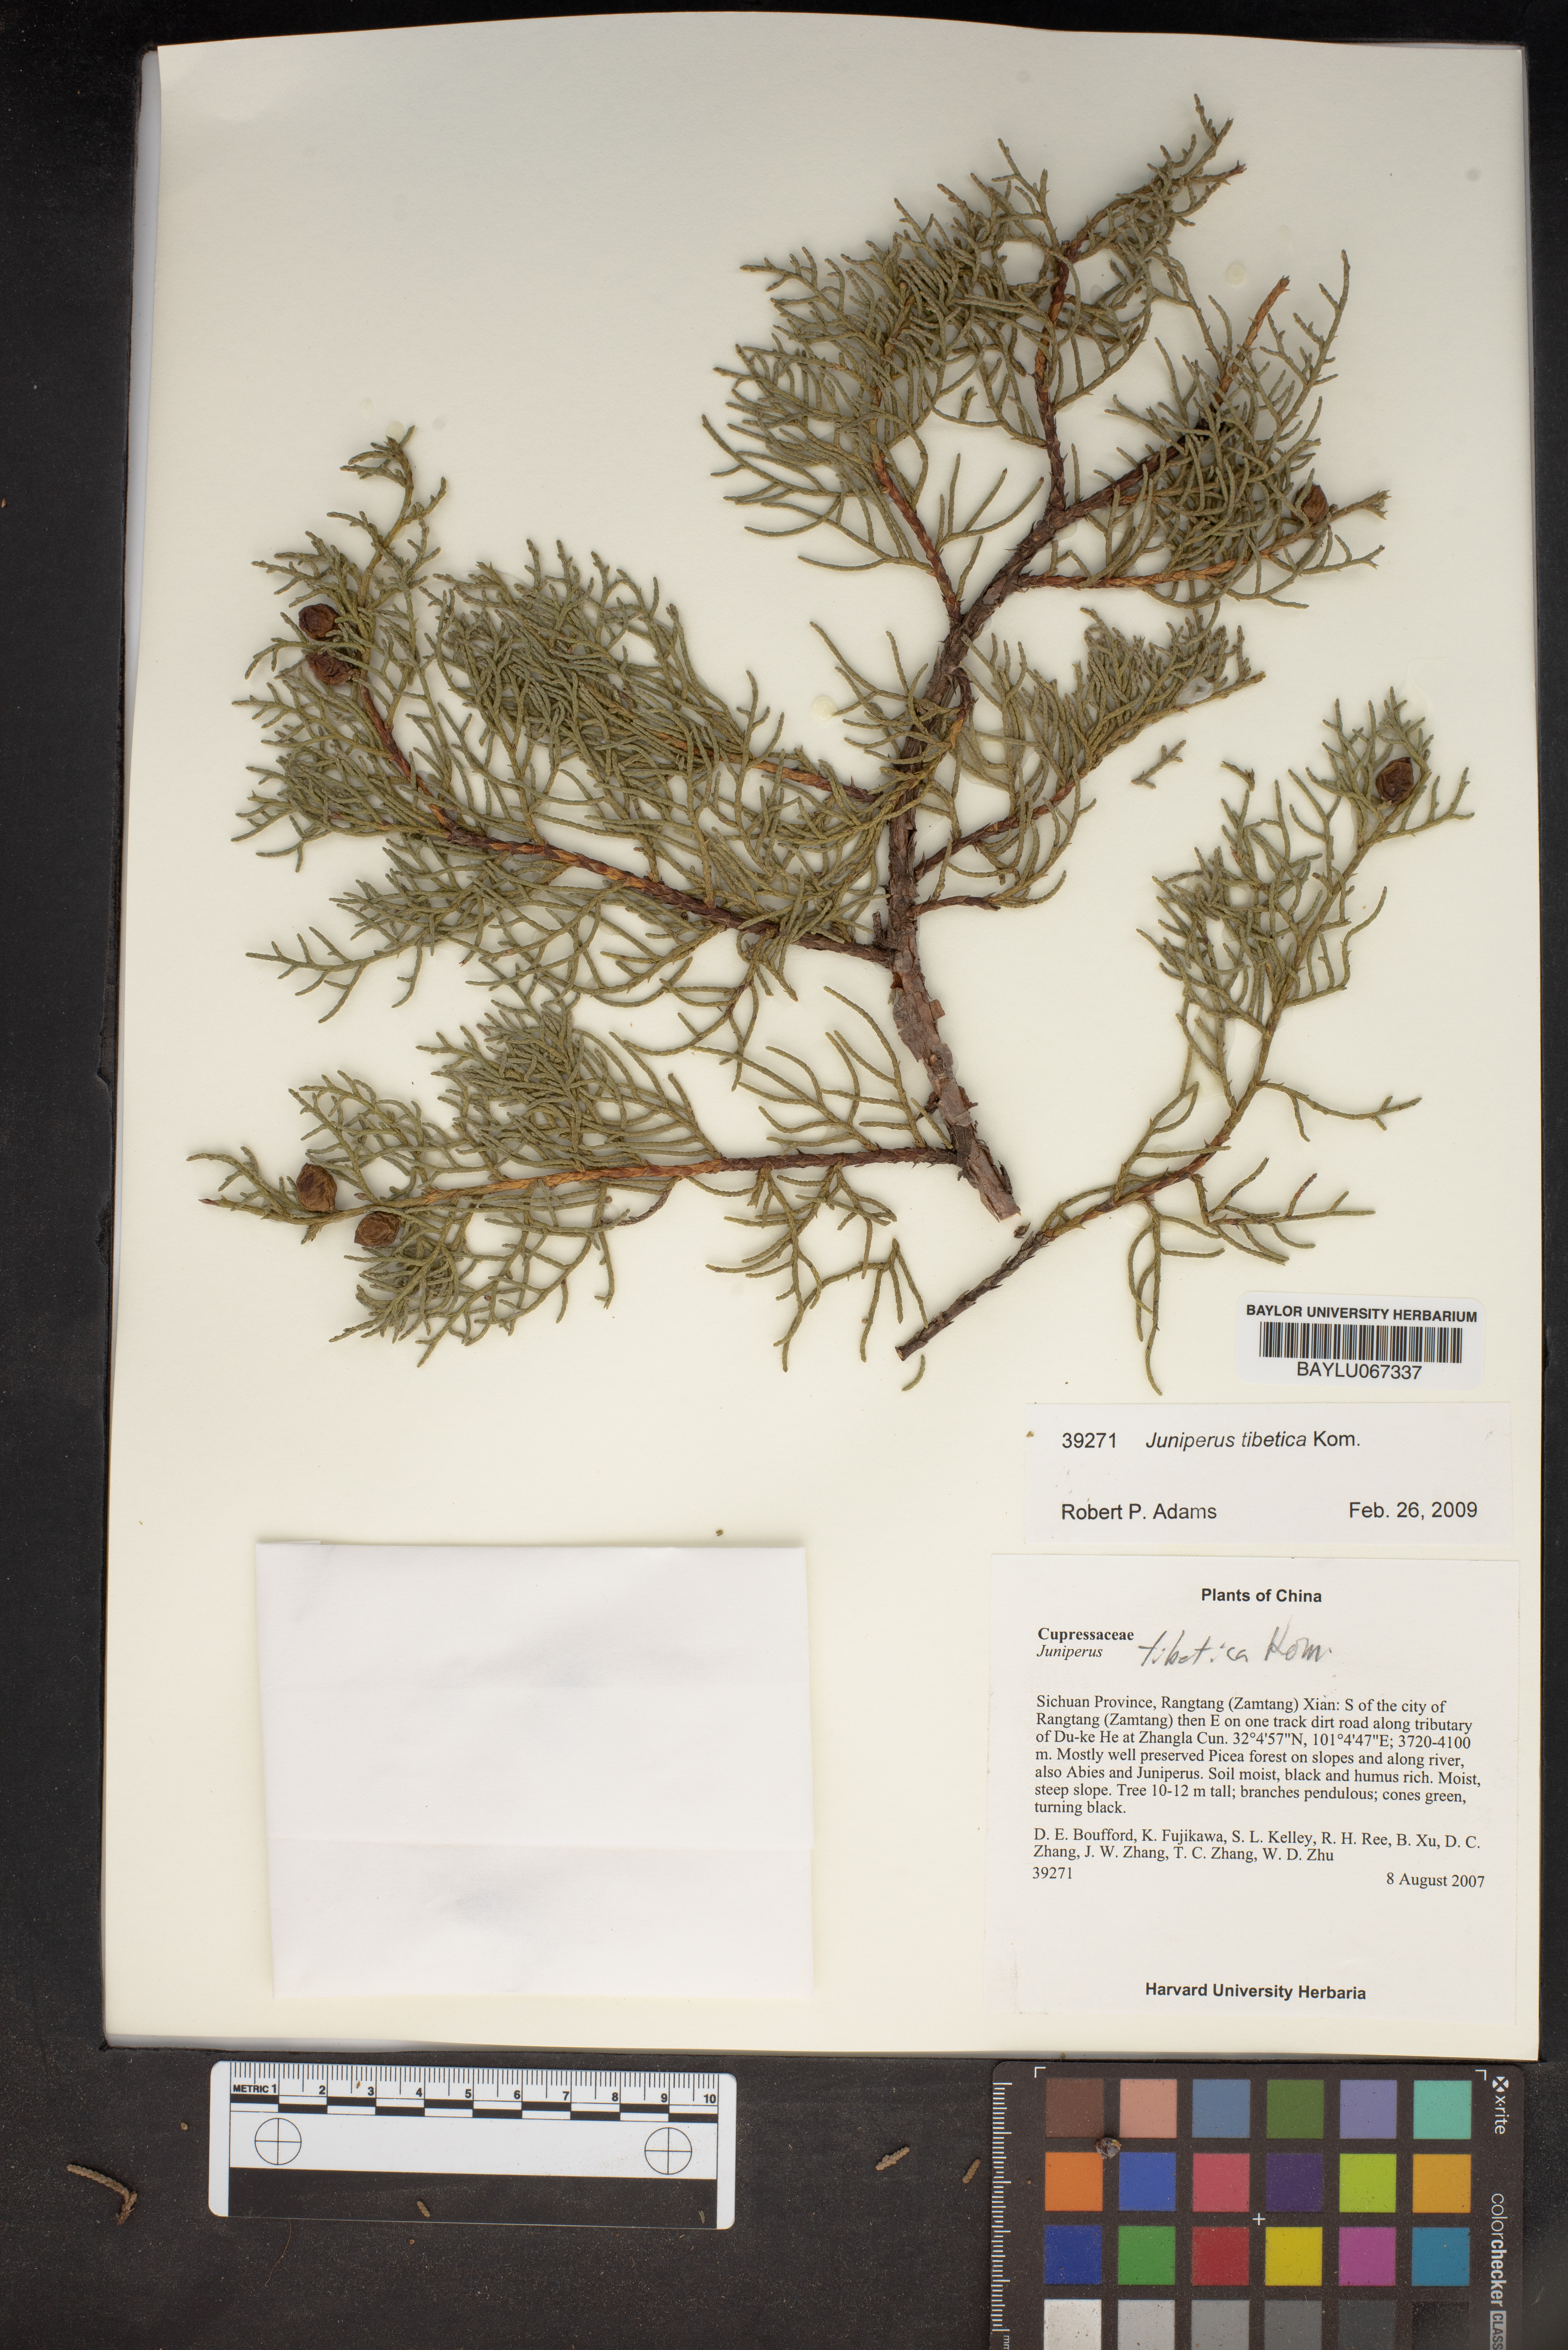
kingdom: Plantae
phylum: Tracheophyta
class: Pinopsida
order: Pinales
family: Cupressaceae
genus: Juniperus
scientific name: Juniperus tibetica
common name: Tibetan juniper
